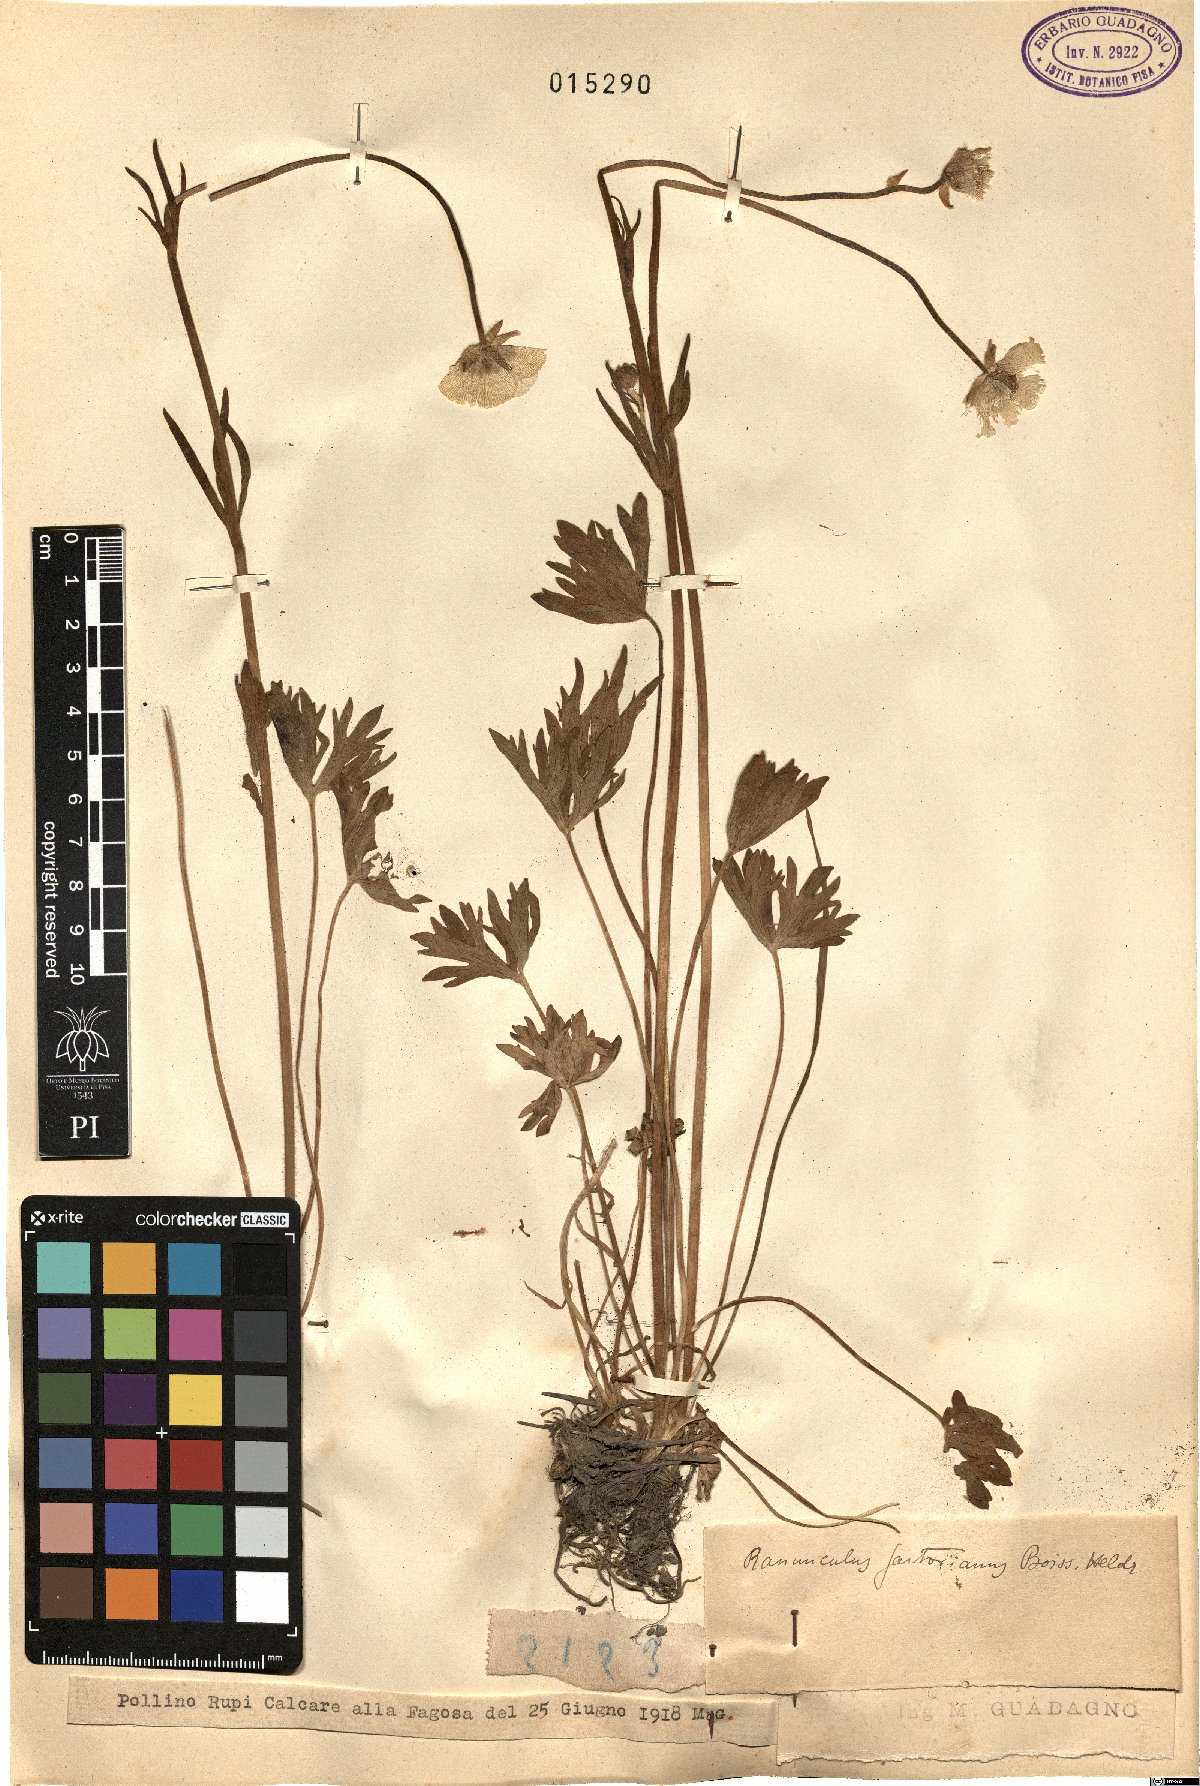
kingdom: Plantae
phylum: Tracheophyta
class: Magnoliopsida
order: Ranunculales
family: Ranunculaceae
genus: Ranunculus
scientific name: Ranunculus sartorianus
